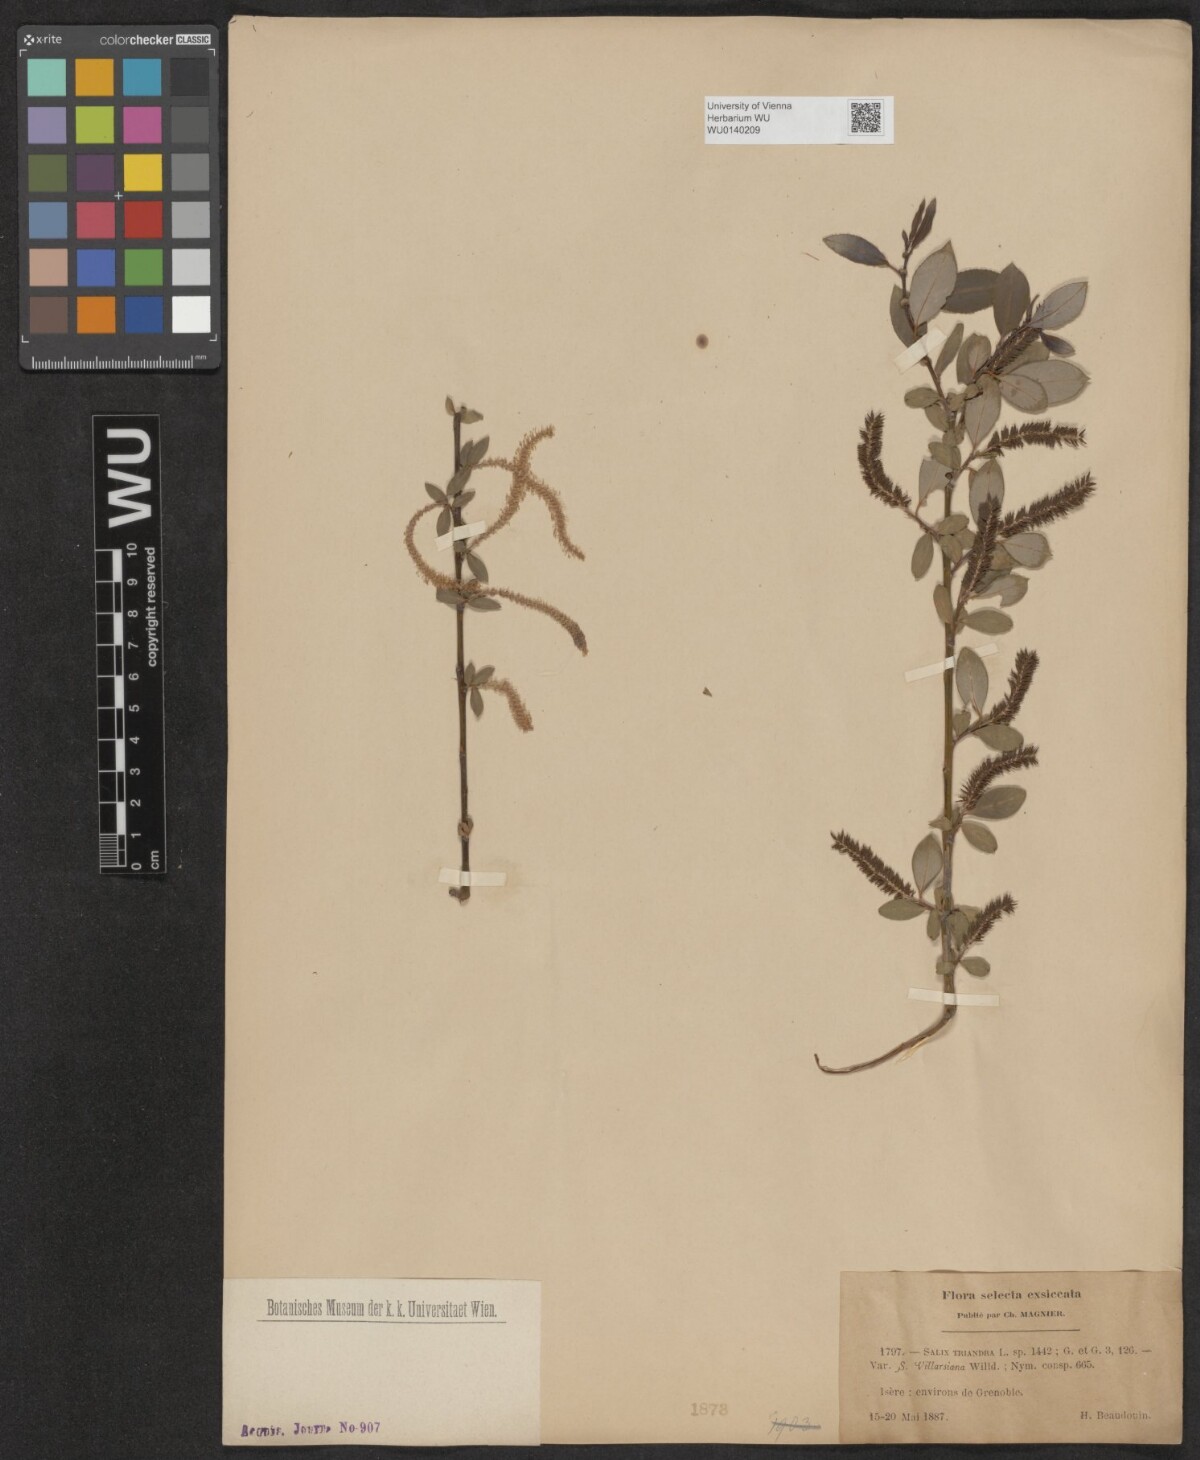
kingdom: Plantae
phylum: Tracheophyta
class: Magnoliopsida
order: Malpighiales
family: Salicaceae
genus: Salix
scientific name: Salix triandra
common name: Almond willow
